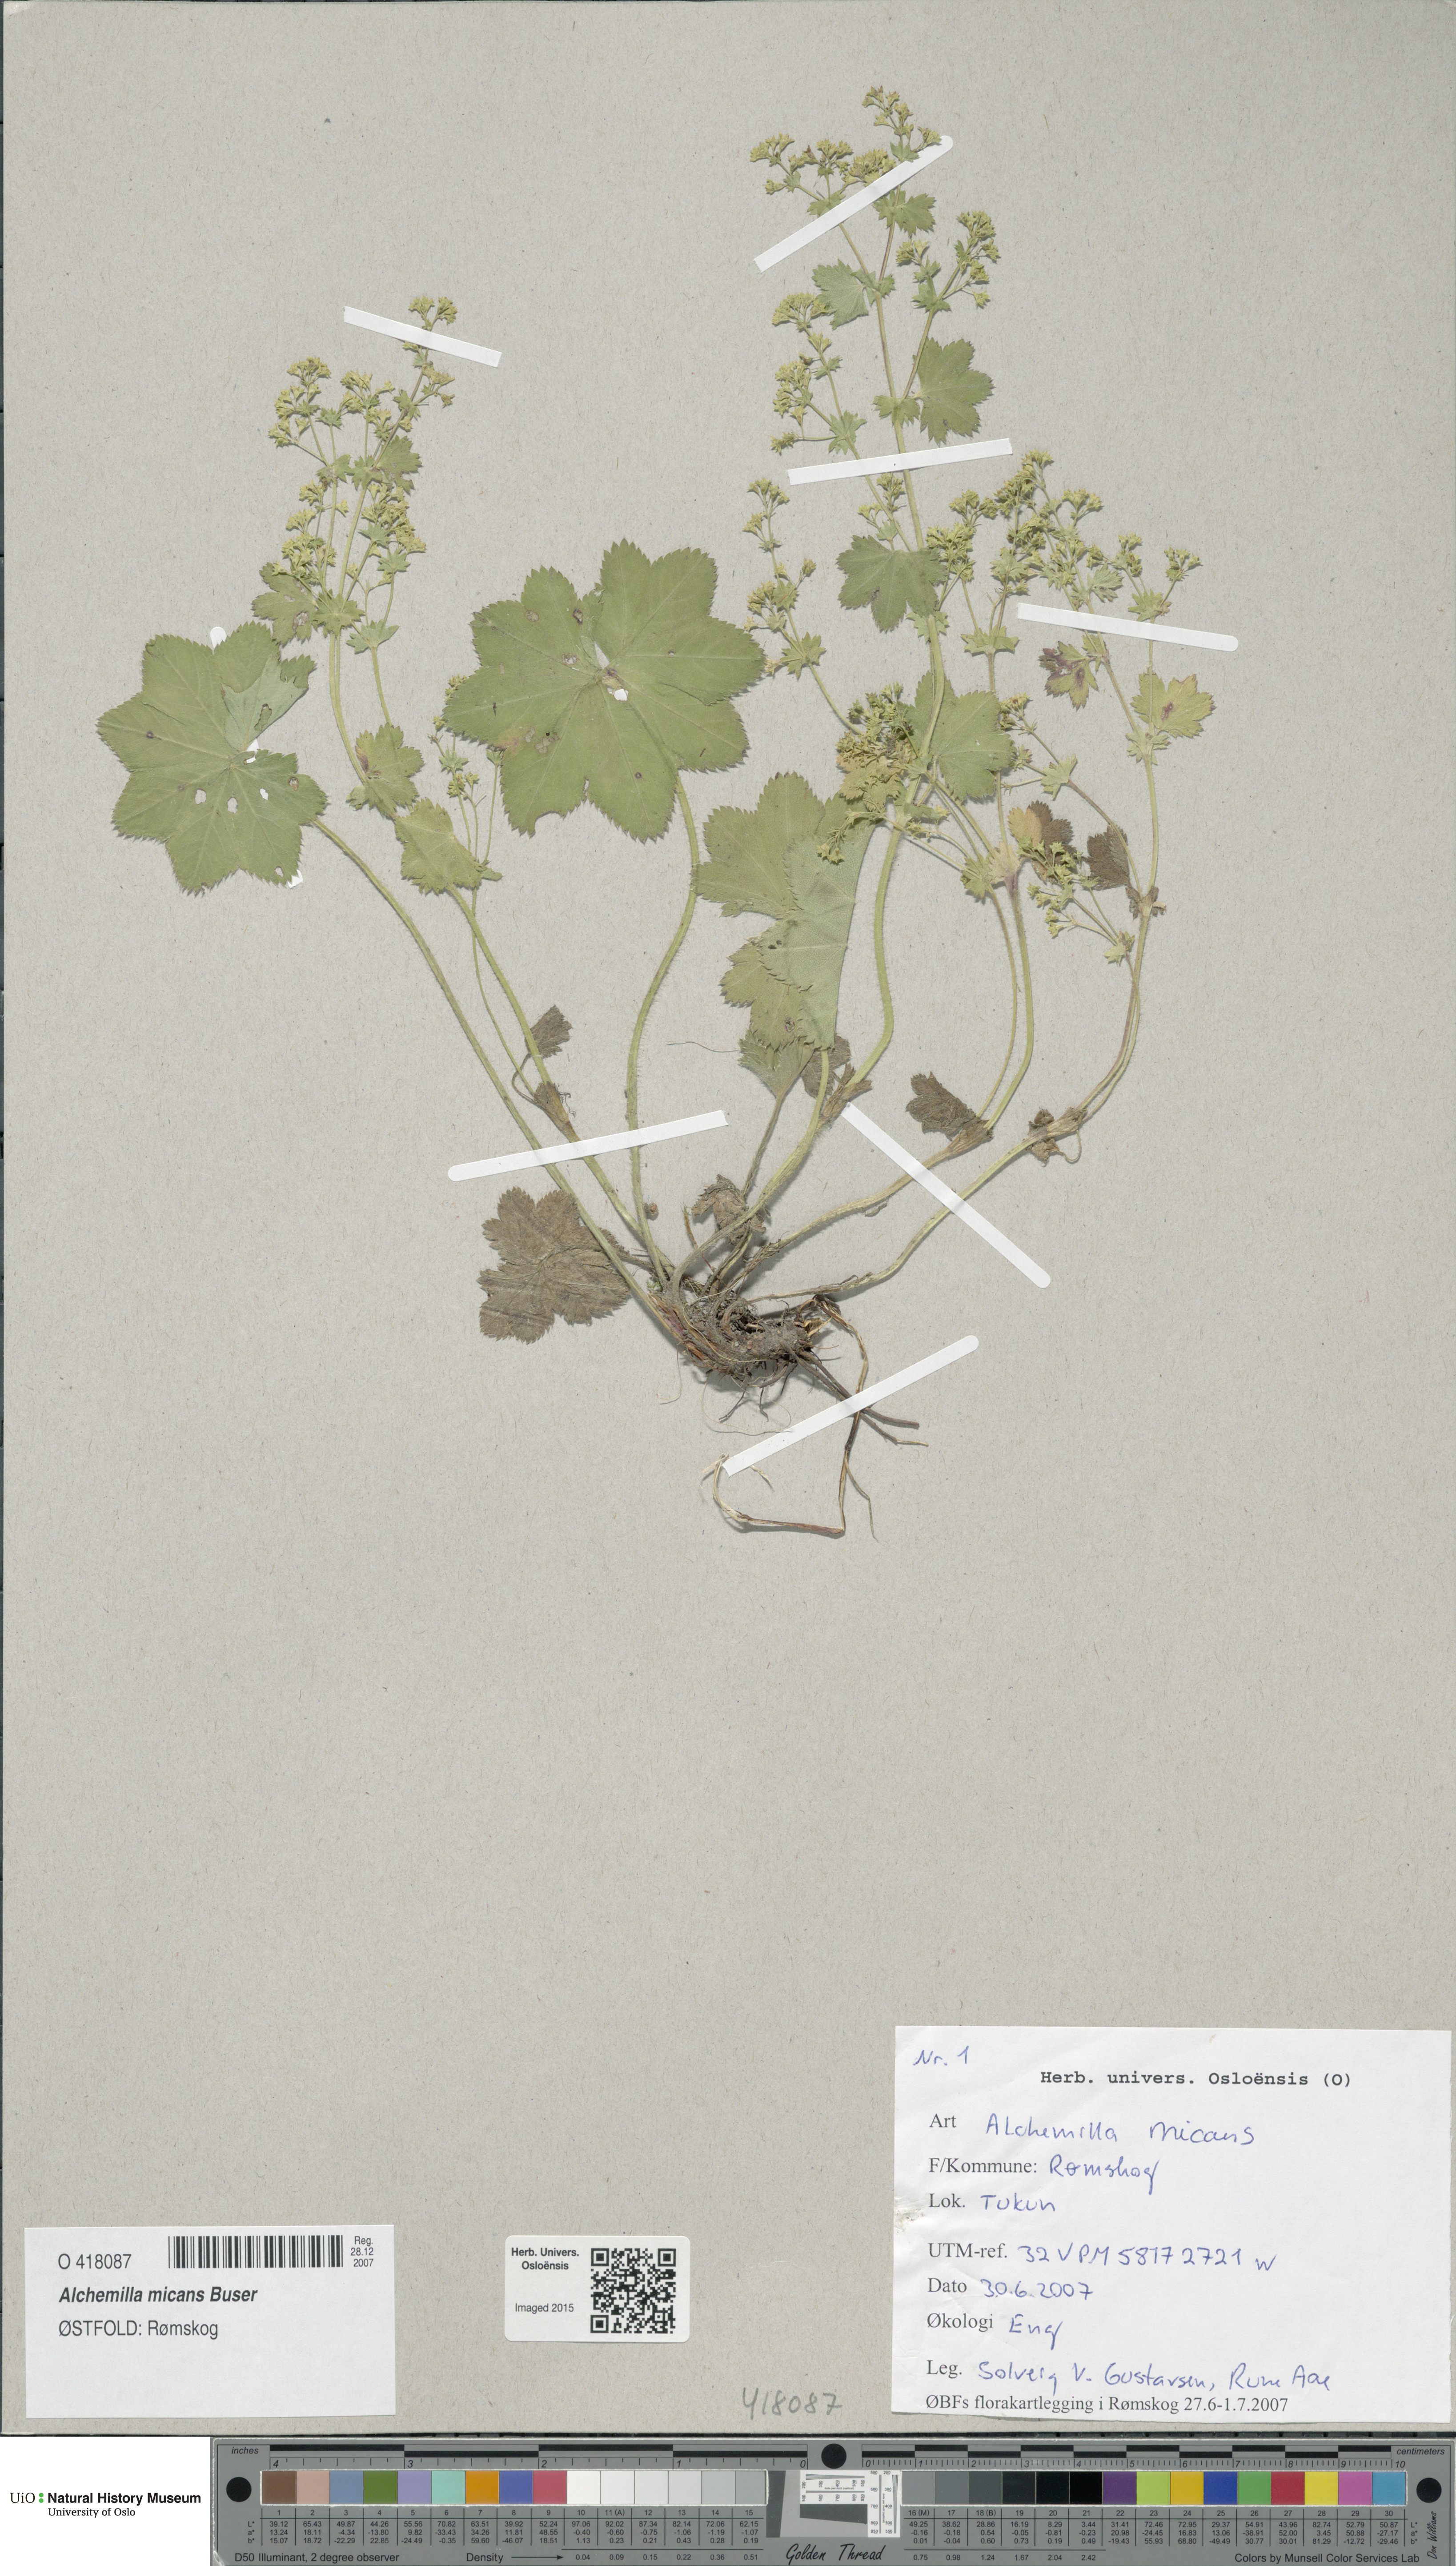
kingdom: Plantae
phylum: Tracheophyta
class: Magnoliopsida
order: Rosales
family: Rosaceae
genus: Alchemilla
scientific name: Alchemilla micans
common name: Gleaming lady's mantle
